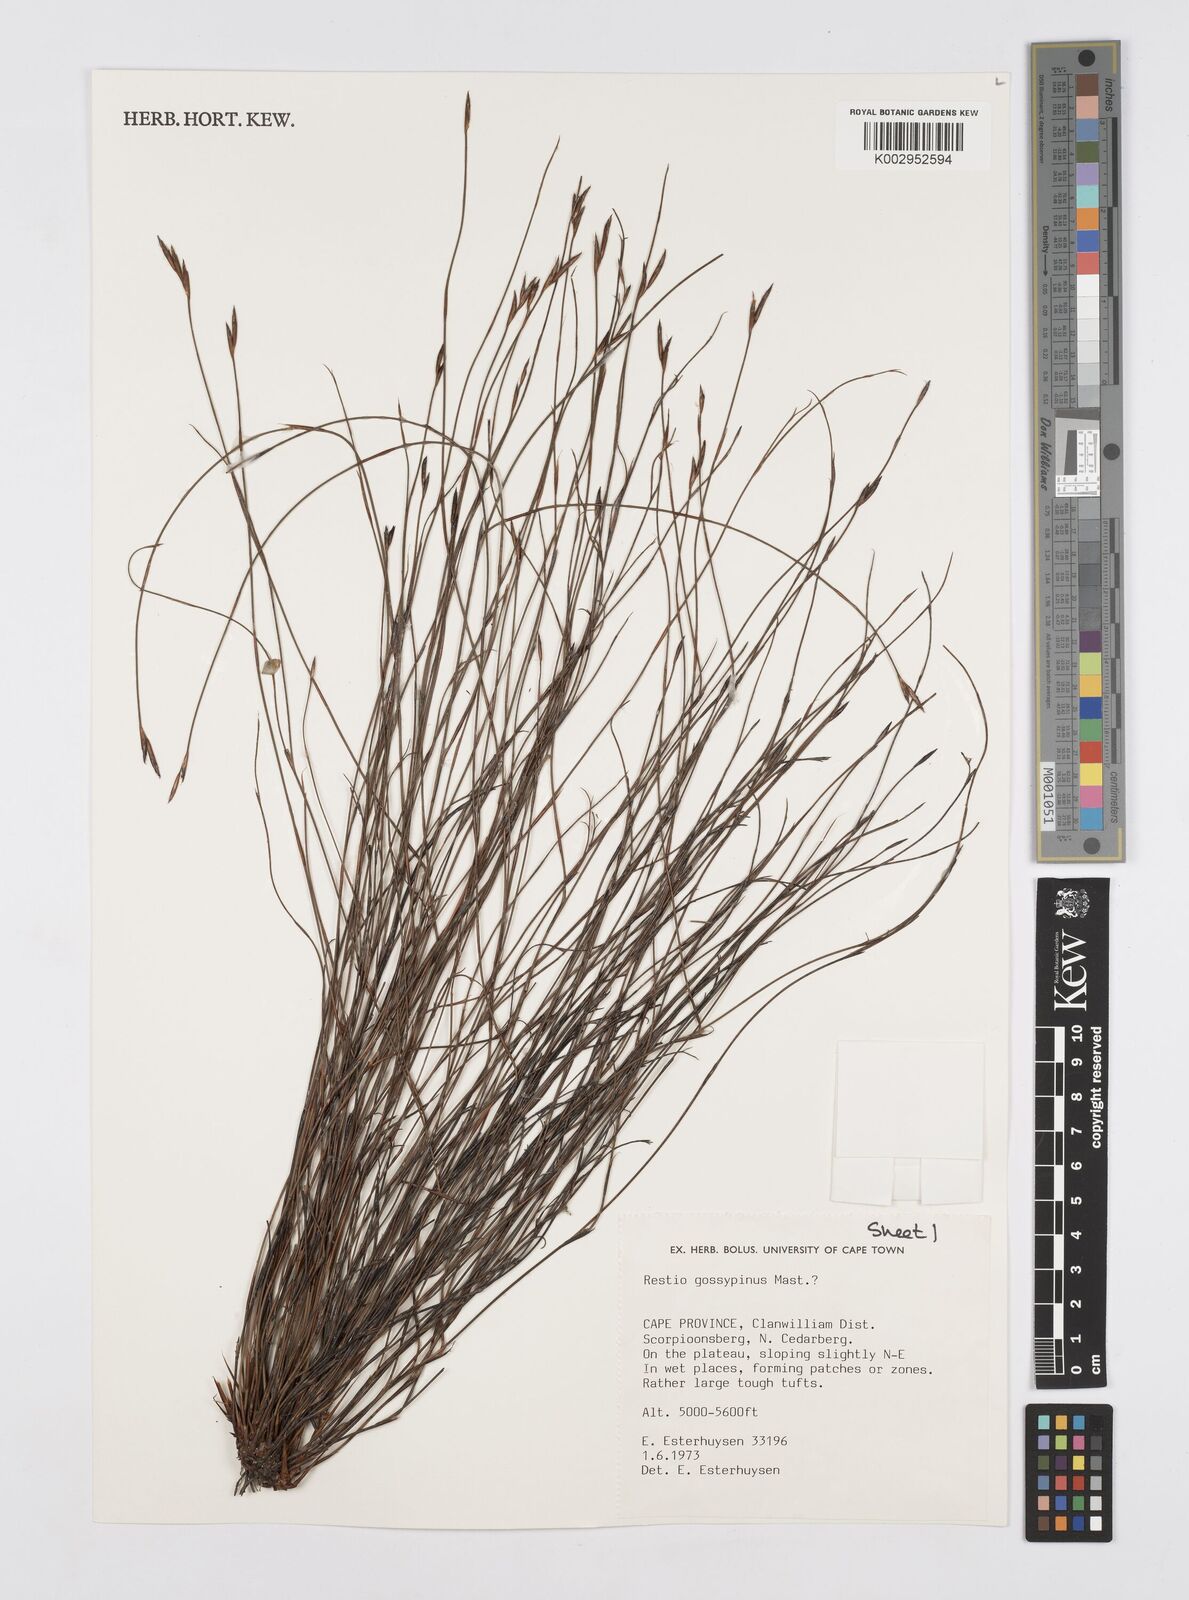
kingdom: Plantae
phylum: Tracheophyta
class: Liliopsida
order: Poales
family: Restionaceae
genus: Restio
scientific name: Restio gossypinus
